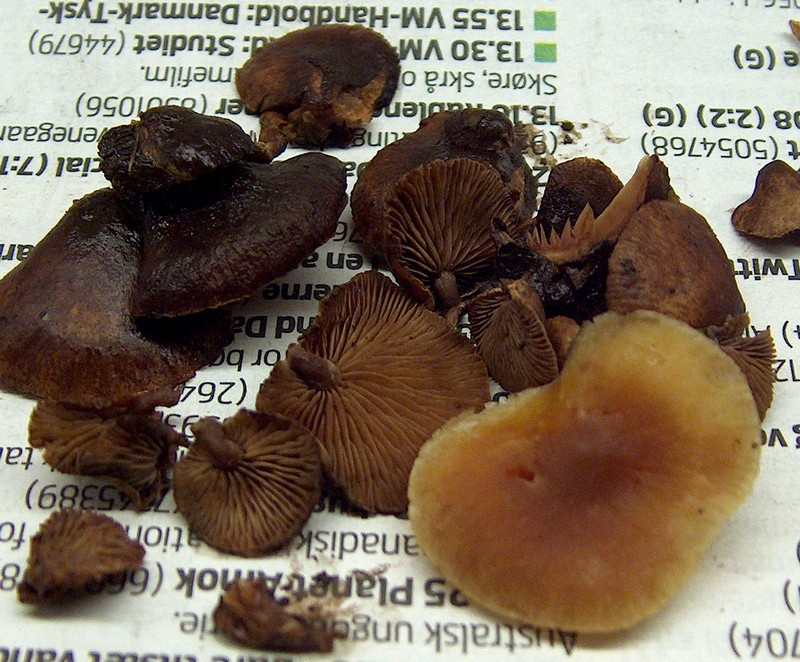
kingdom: Fungi
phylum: Basidiomycota
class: Agaricomycetes
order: Agaricales
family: Strophariaceae
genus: Deconica
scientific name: Deconica horizontalis
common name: ved-stråhat
